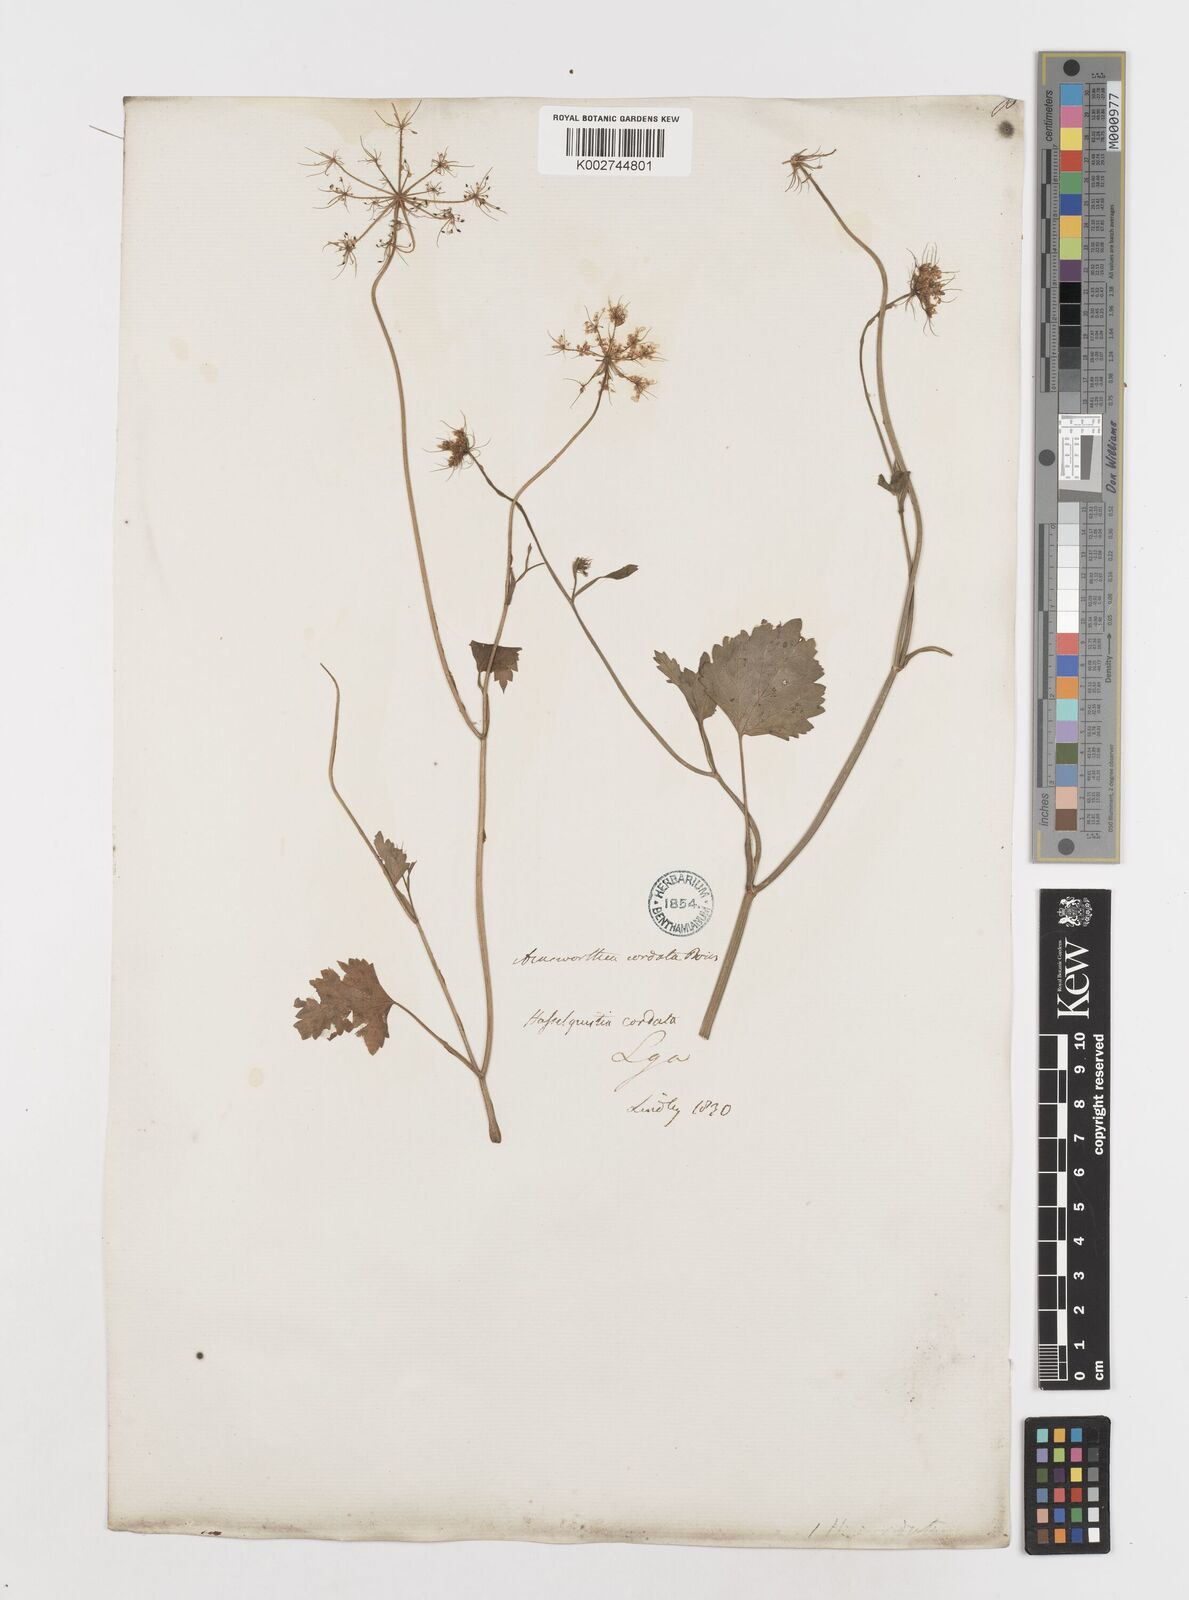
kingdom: Plantae
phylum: Tracheophyta
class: Magnoliopsida
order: Apiales
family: Apiaceae
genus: Ainsworthia
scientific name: Ainsworthia cordata
